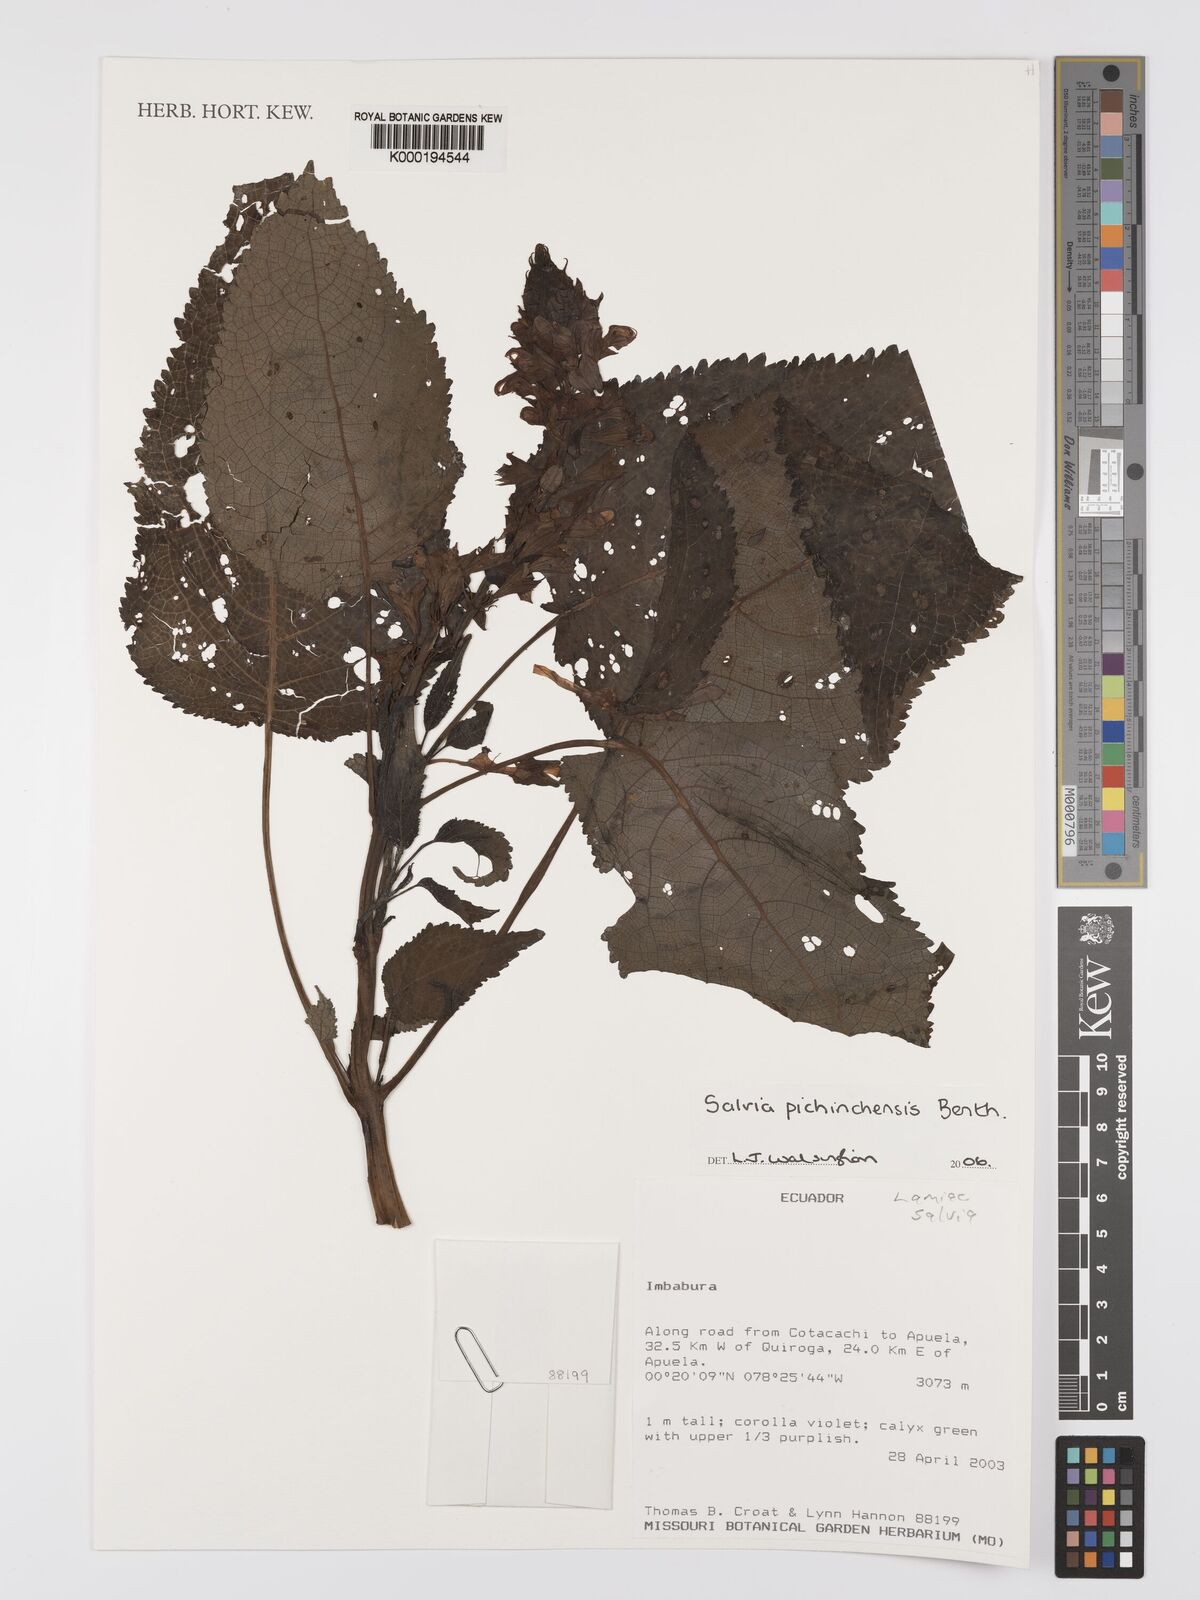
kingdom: Plantae
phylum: Tracheophyta
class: Magnoliopsida
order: Lamiales
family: Lamiaceae
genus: Salvia
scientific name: Salvia pichinchensis
